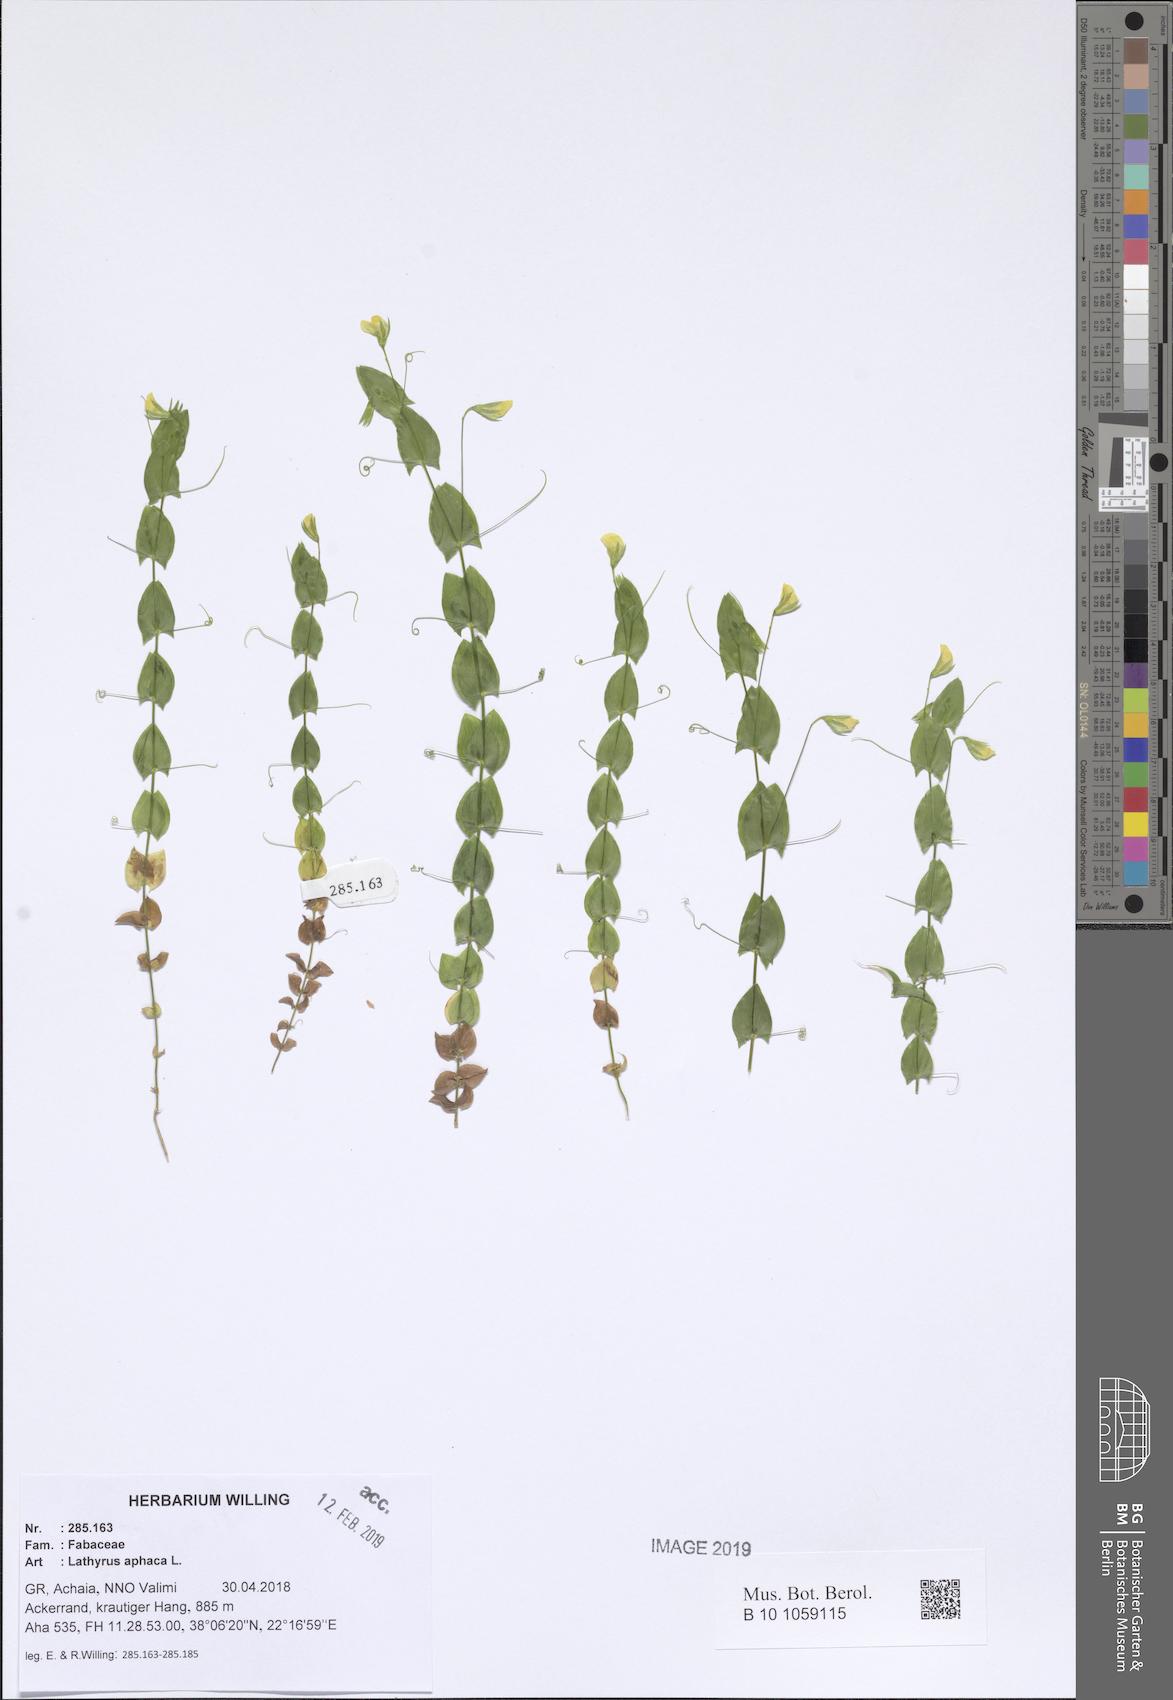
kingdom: Plantae
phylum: Tracheophyta
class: Magnoliopsida
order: Fabales
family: Fabaceae
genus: Lathyrus
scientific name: Lathyrus aphaca
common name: Yellow vetchling
